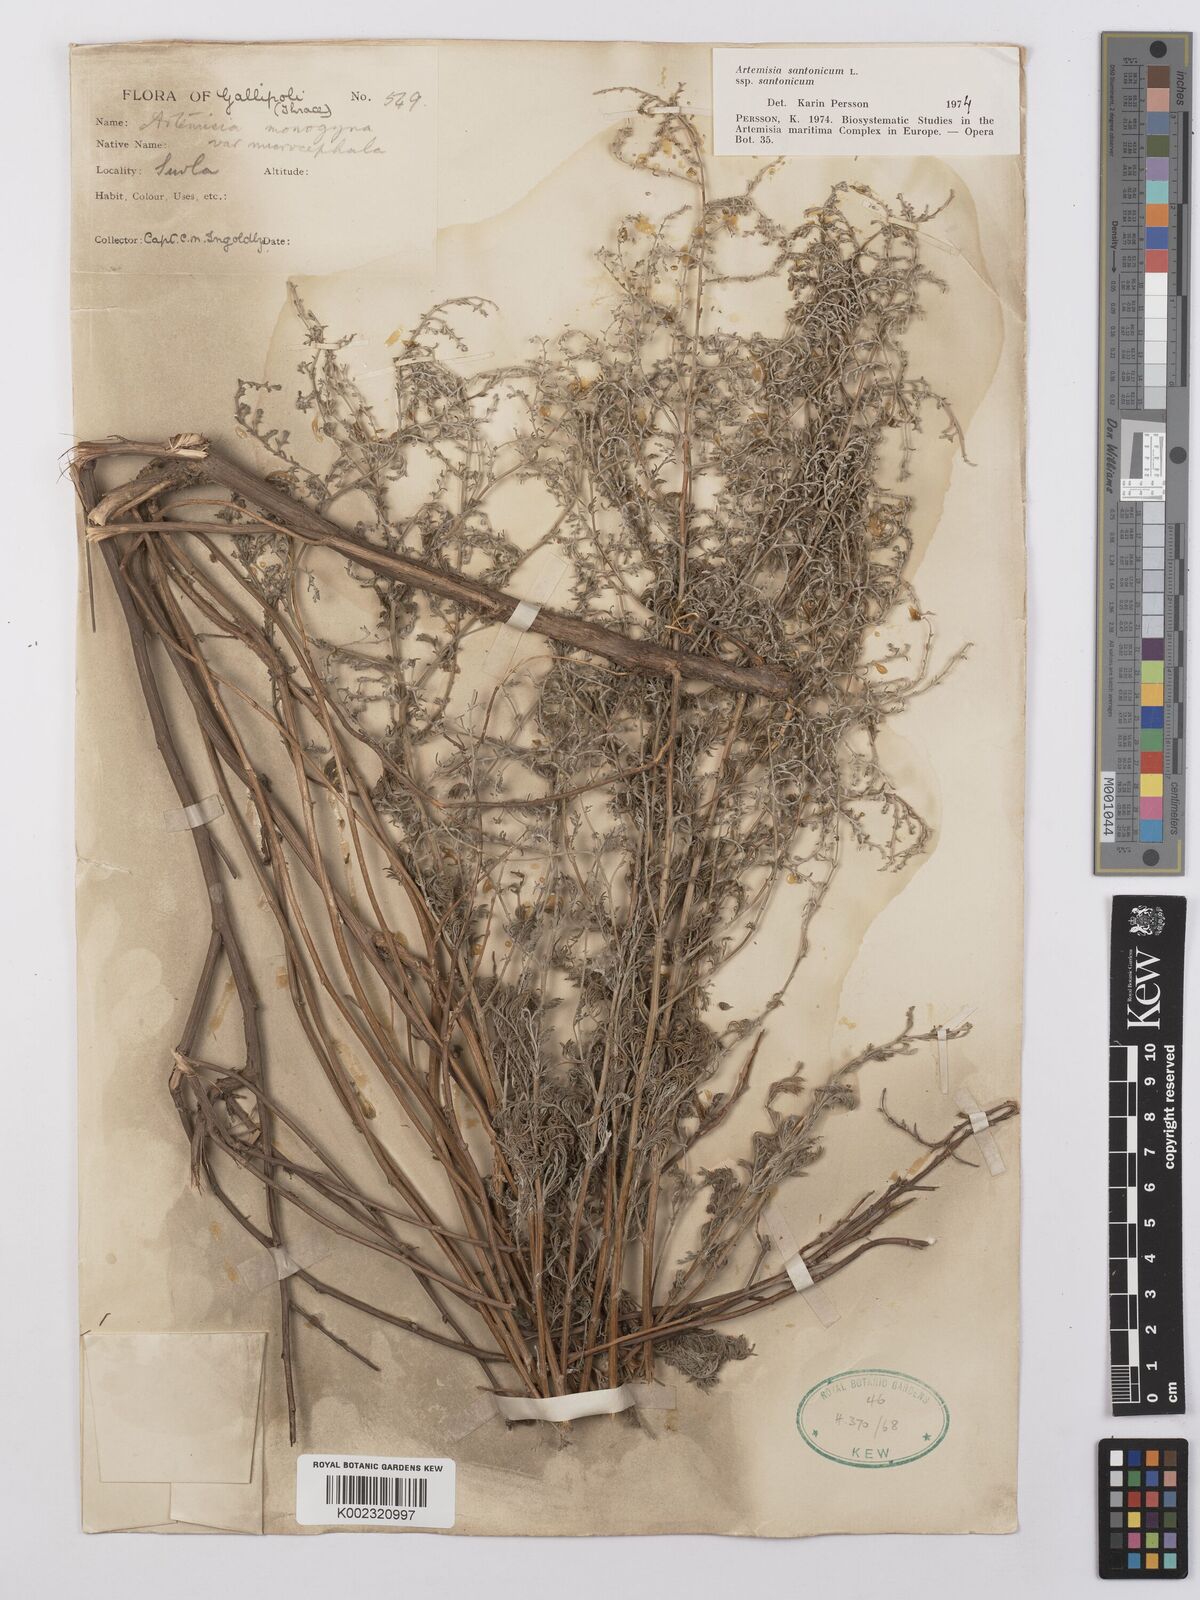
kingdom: Plantae
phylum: Tracheophyta
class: Magnoliopsida
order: Asterales
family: Asteraceae
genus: Artemisia
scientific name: Artemisia santonicum
